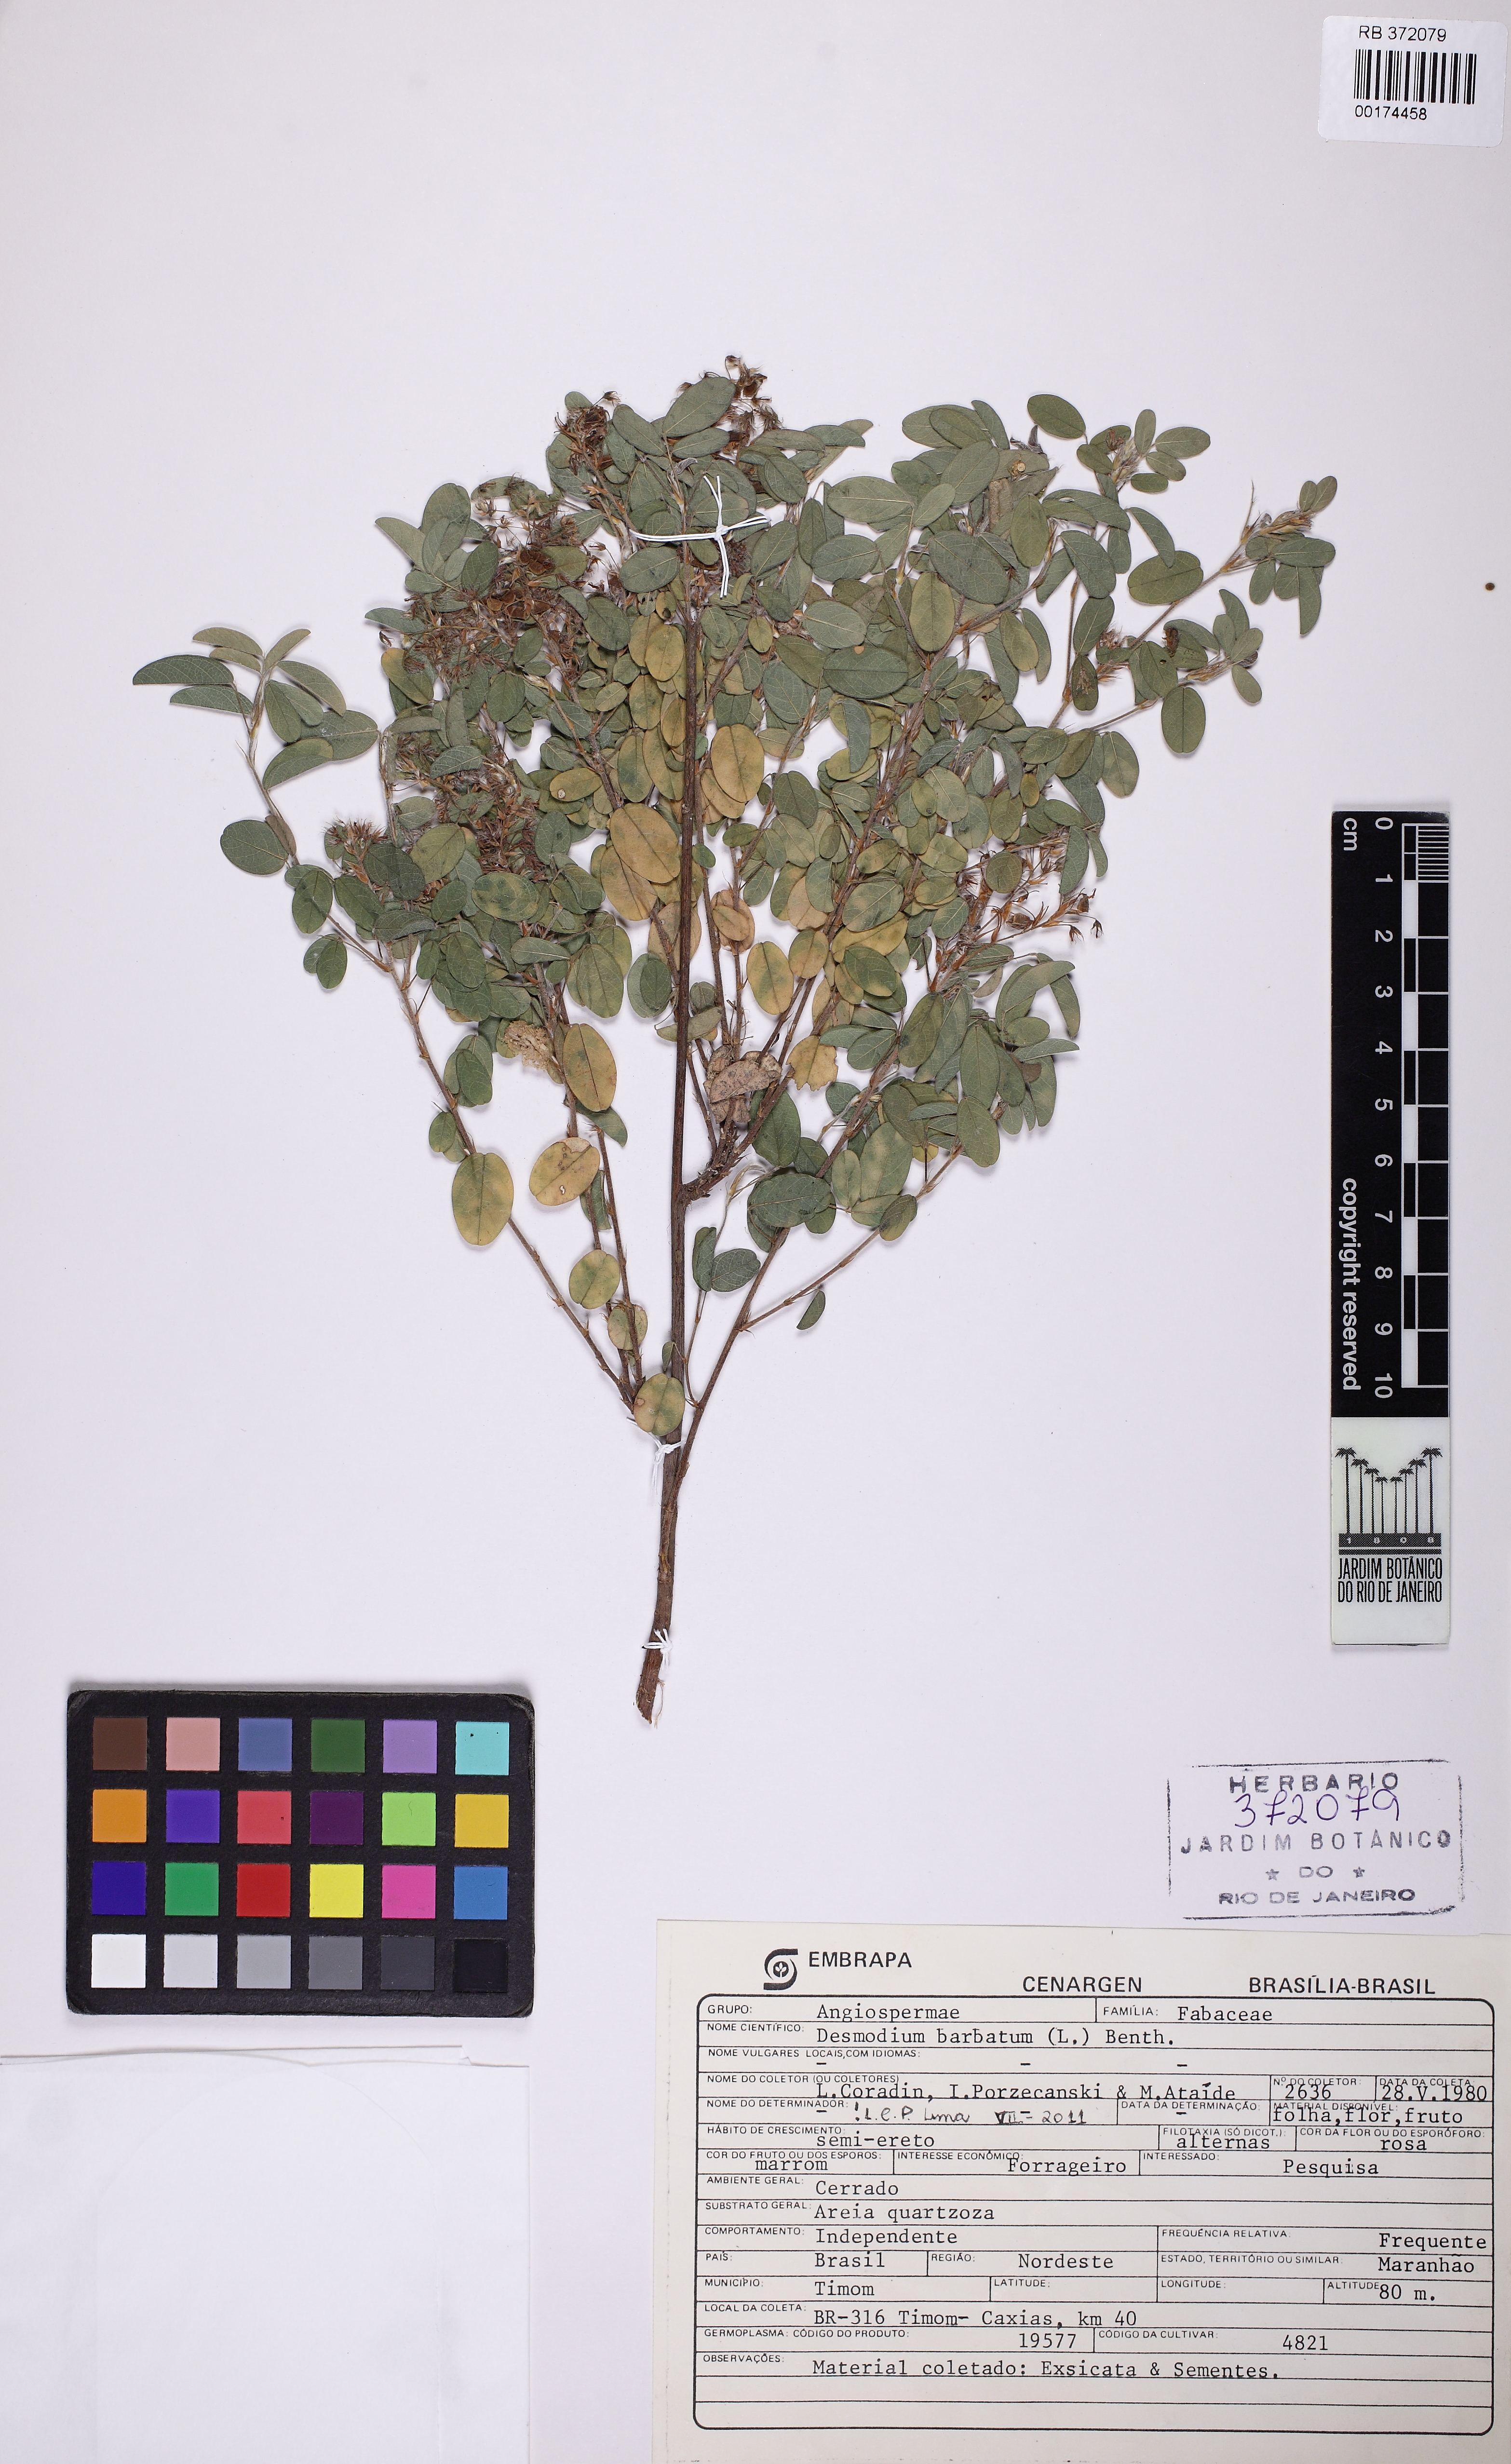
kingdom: Plantae
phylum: Tracheophyta
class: Magnoliopsida
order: Fabales
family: Fabaceae
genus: Grona
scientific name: Grona barbata
